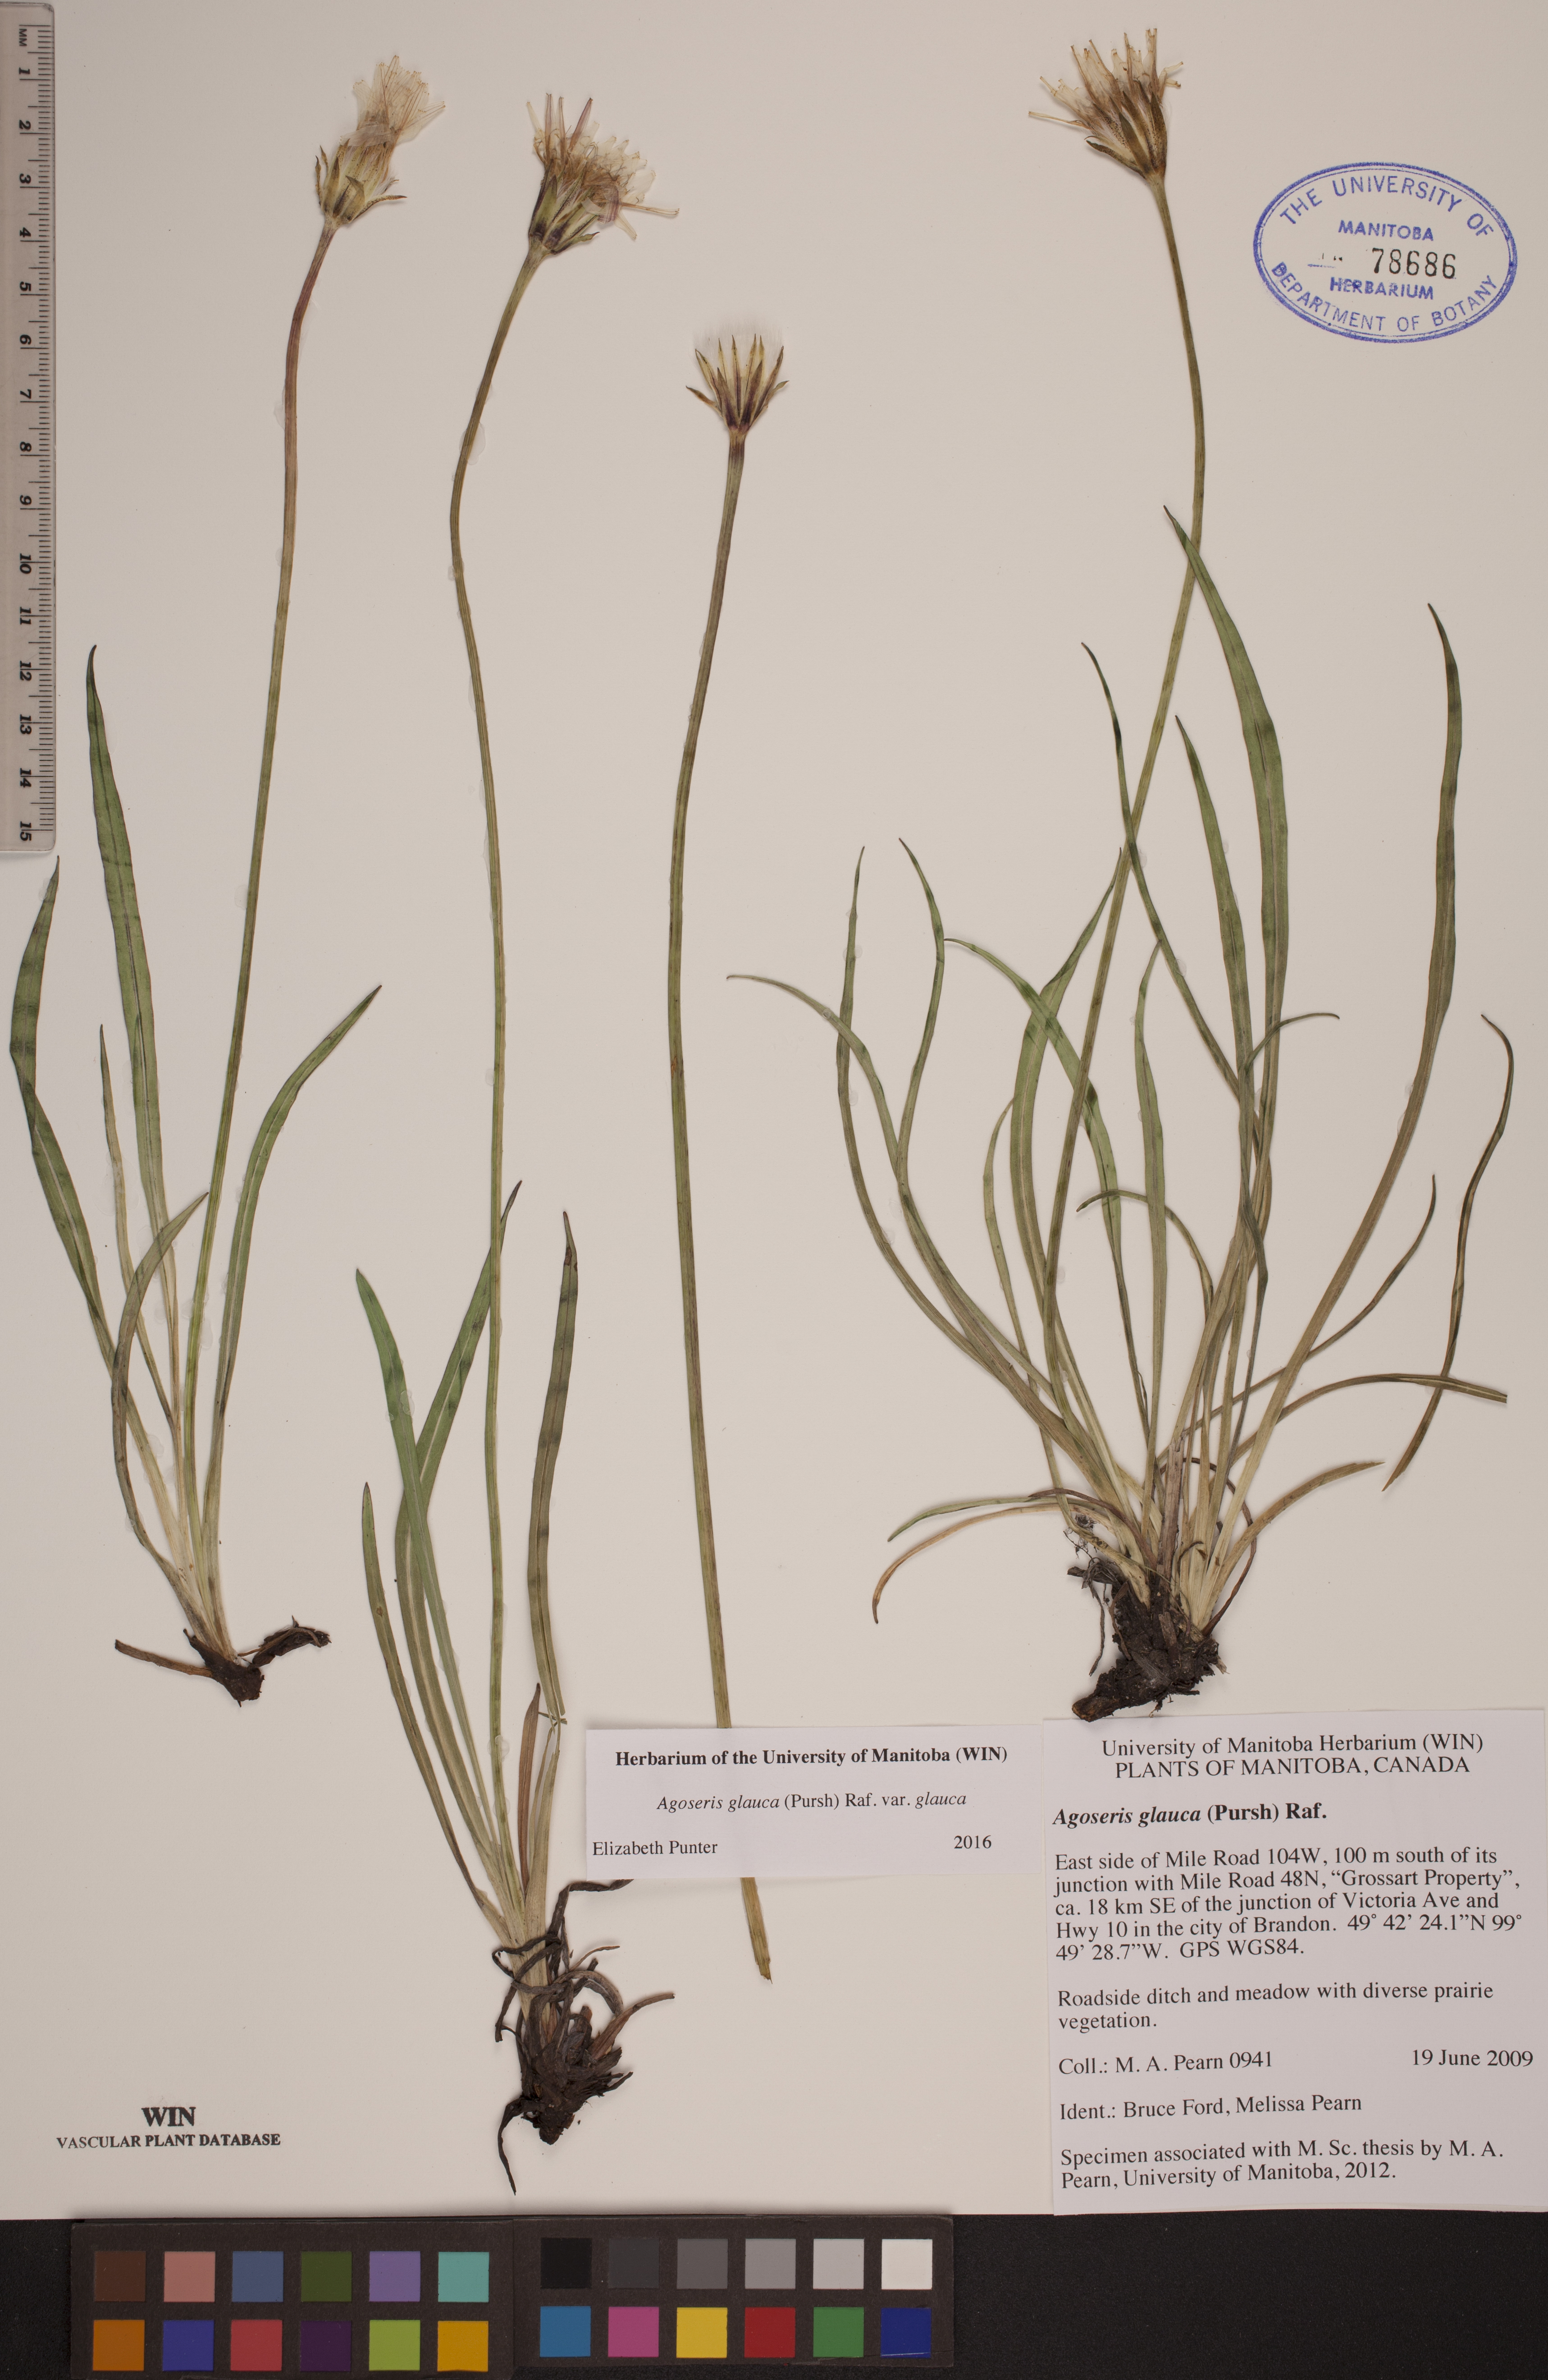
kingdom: Plantae
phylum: Tracheophyta
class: Magnoliopsida
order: Asterales
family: Asteraceae
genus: Agoseris
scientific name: Agoseris glauca
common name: Prairie agoseris
